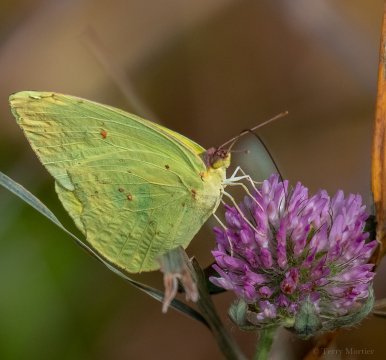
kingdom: Animalia
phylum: Arthropoda
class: Insecta
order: Lepidoptera
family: Pieridae
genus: Phoebis
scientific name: Phoebis sennae
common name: Cloudless Sulphur
